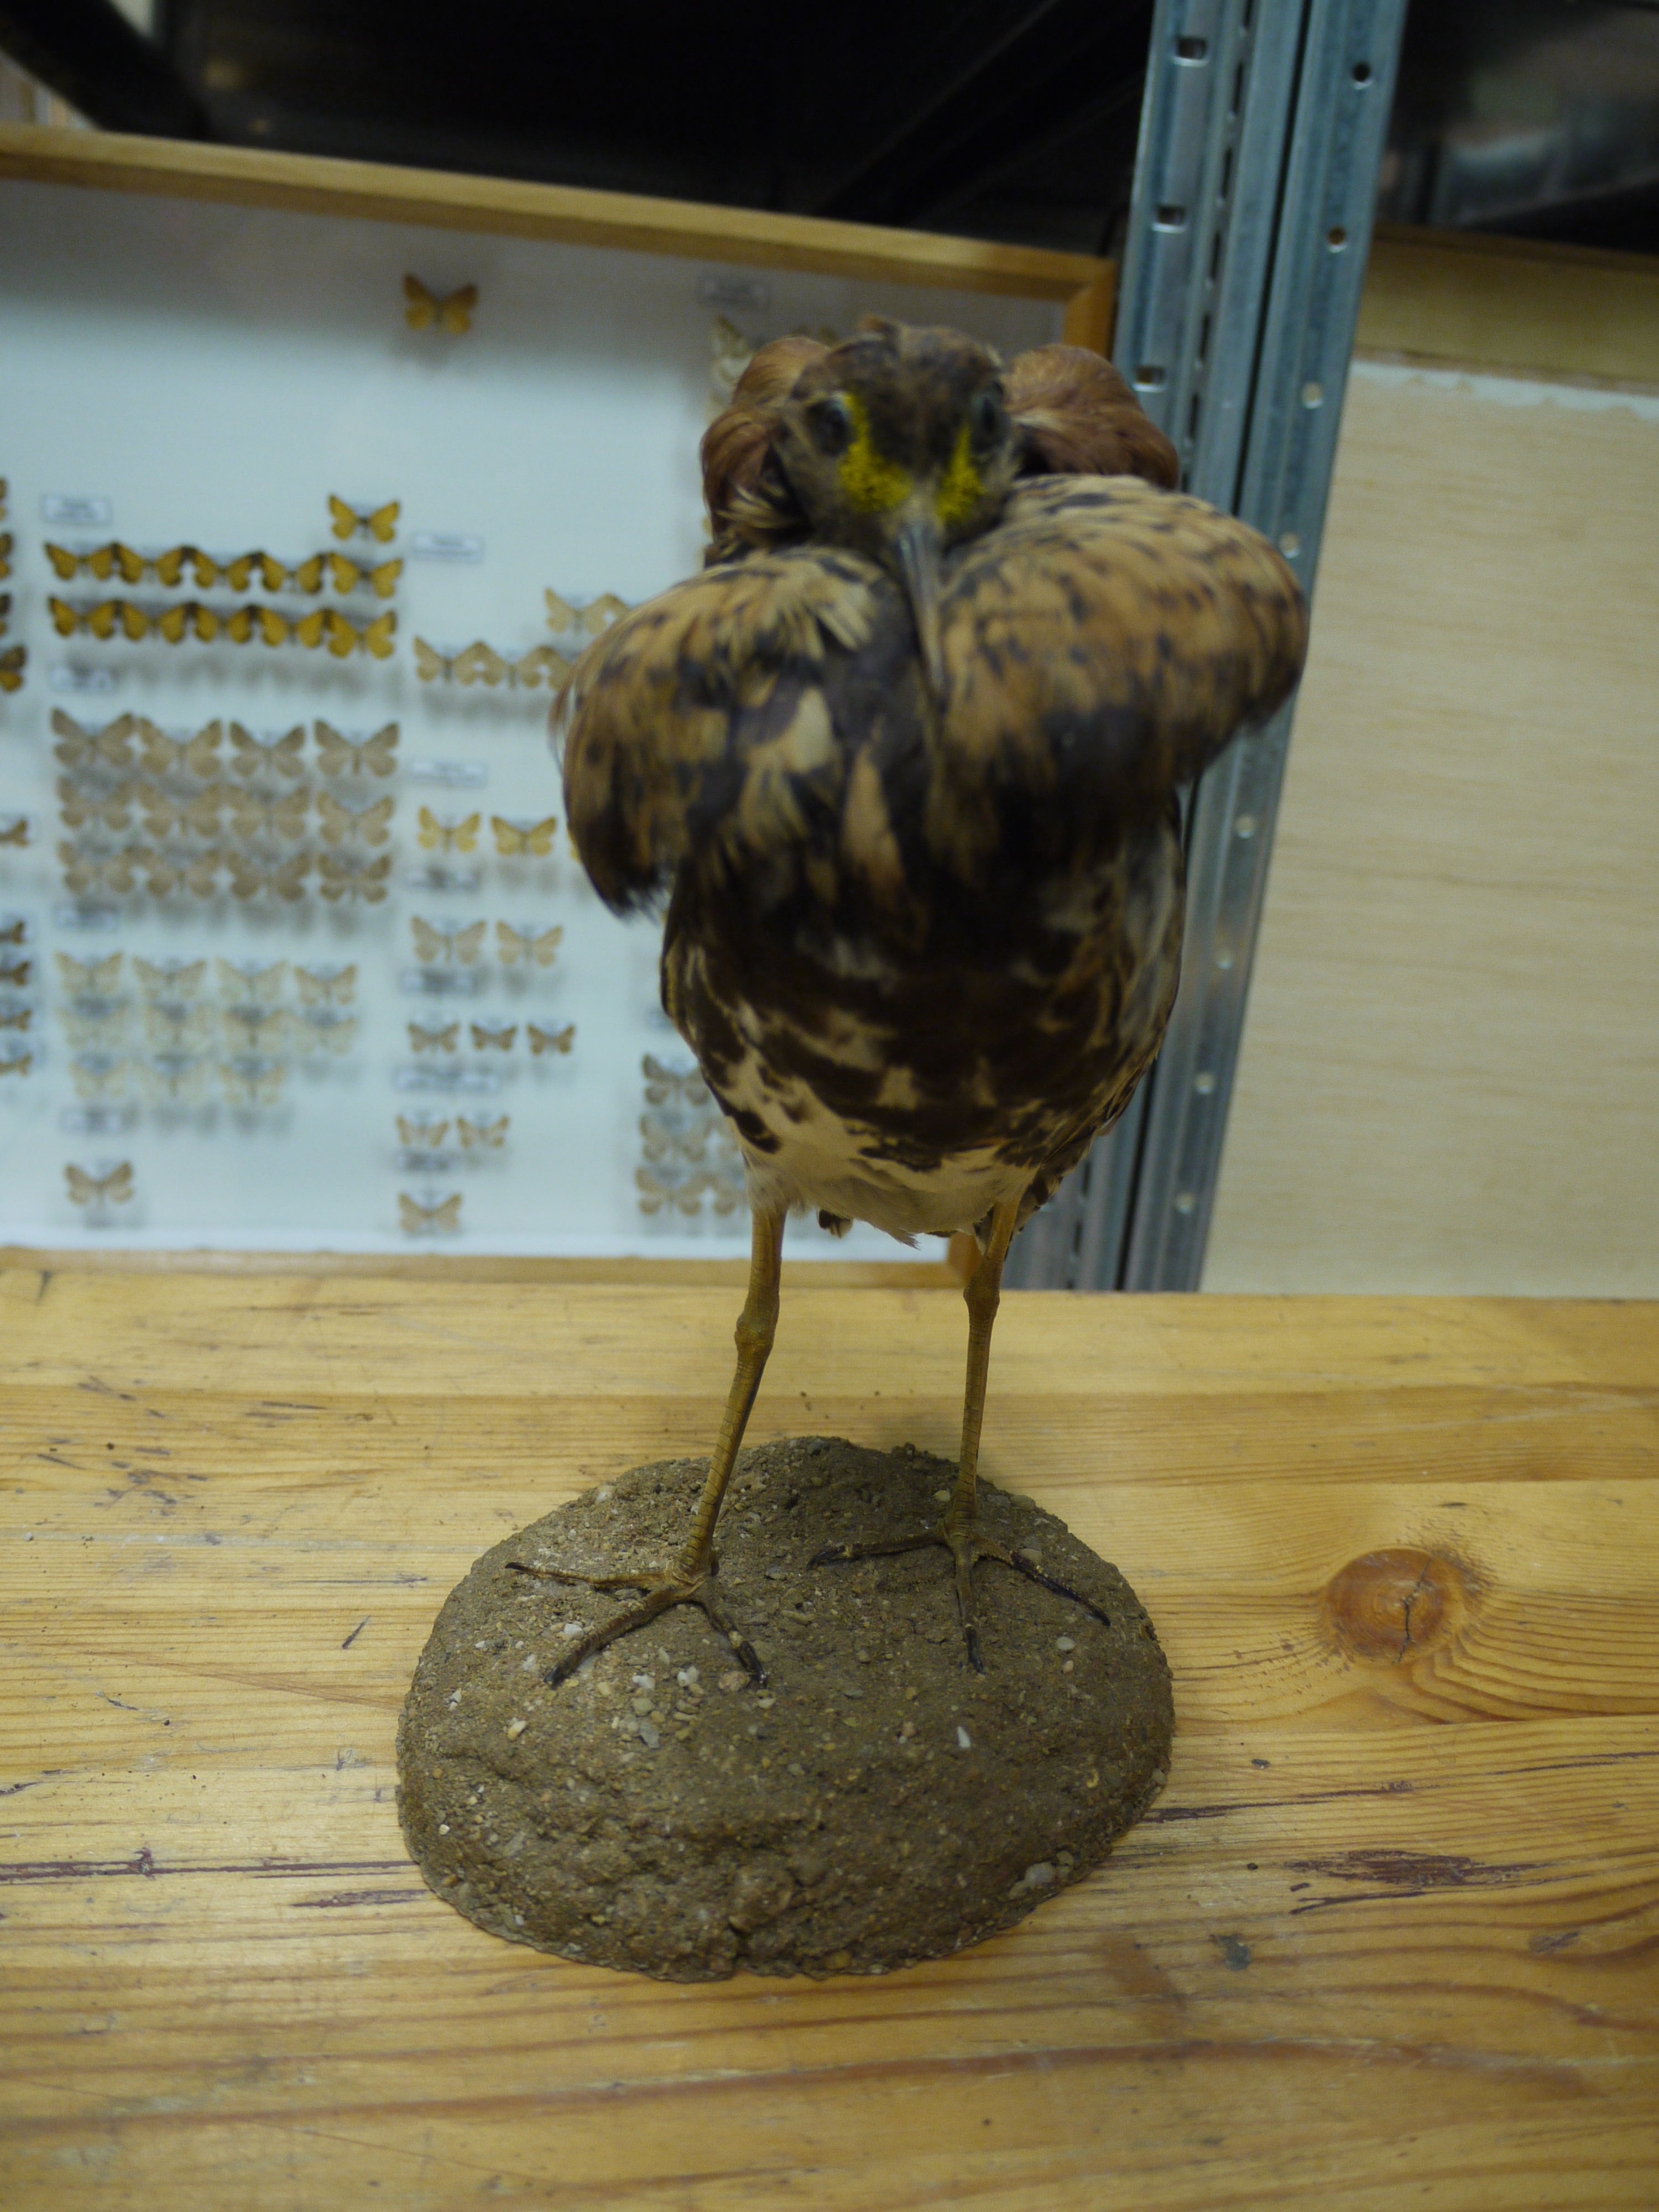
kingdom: Animalia
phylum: Chordata
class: Aves
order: Charadriiformes
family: Scolopacidae
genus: Calidris
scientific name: Calidris pugnax
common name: Ruff
